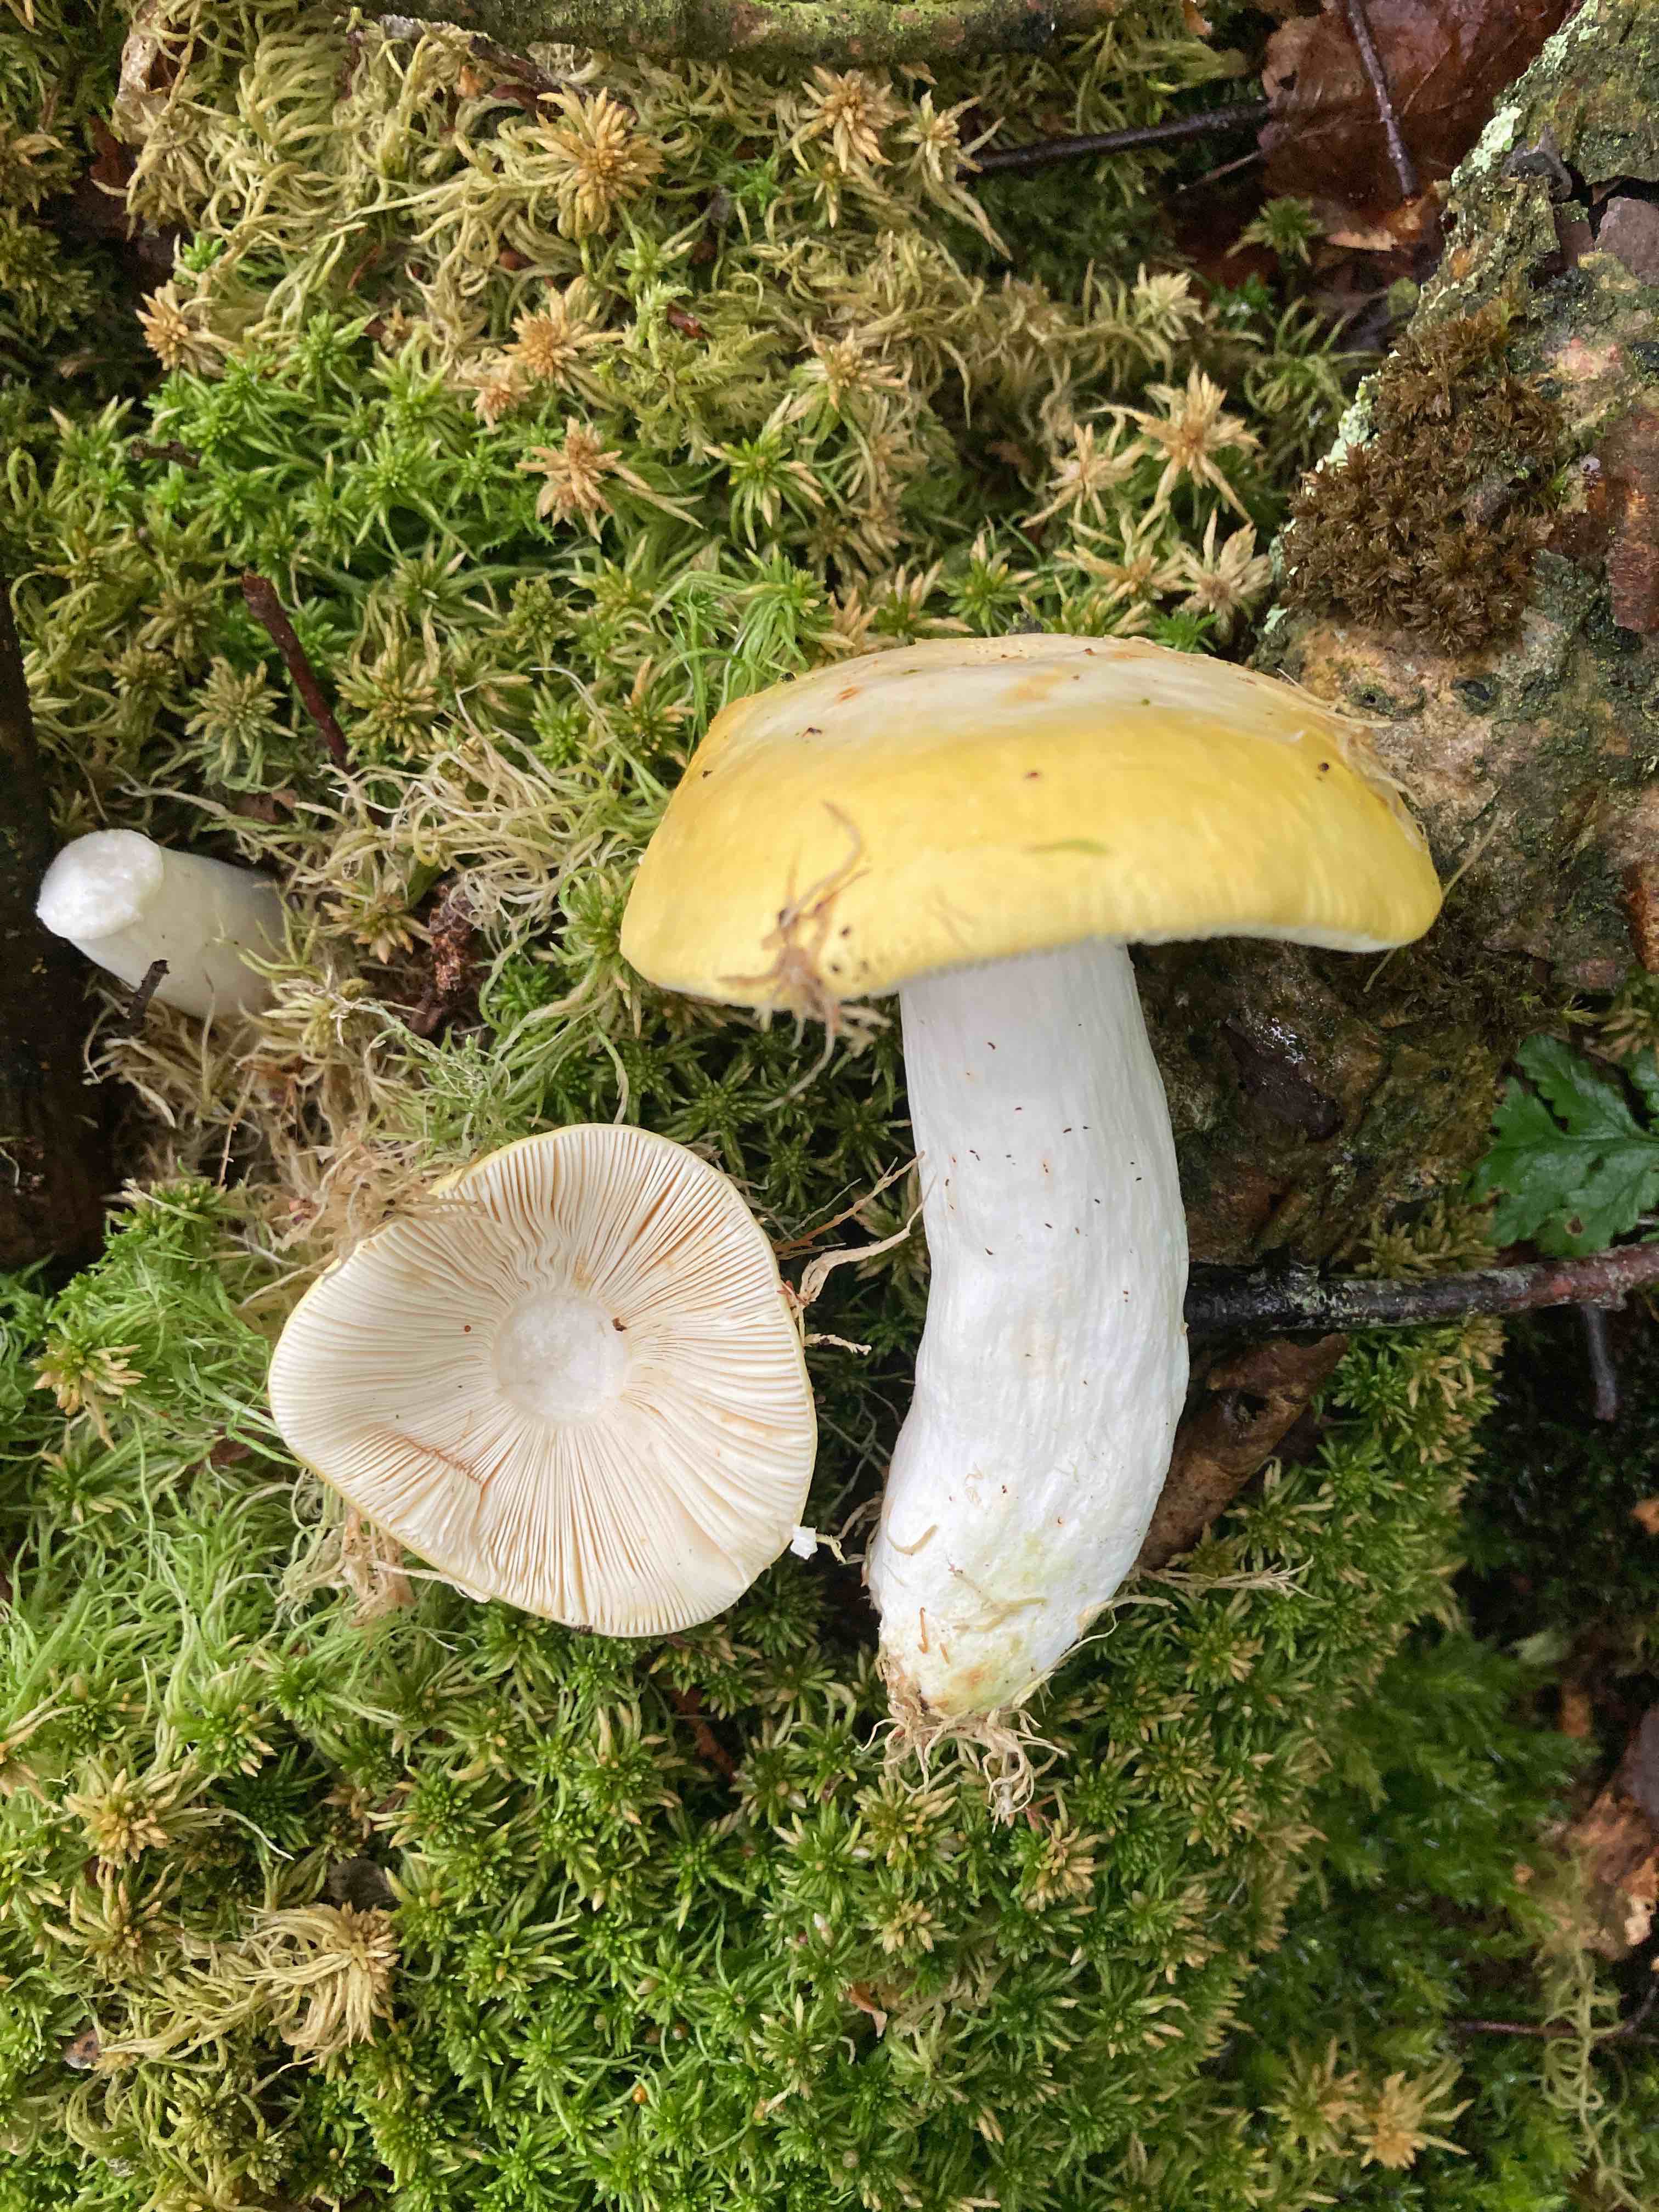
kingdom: Fungi
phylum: Basidiomycota
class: Agaricomycetes
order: Russulales
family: Russulaceae
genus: Russula
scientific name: Russula claroflava
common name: birke-skørhat
